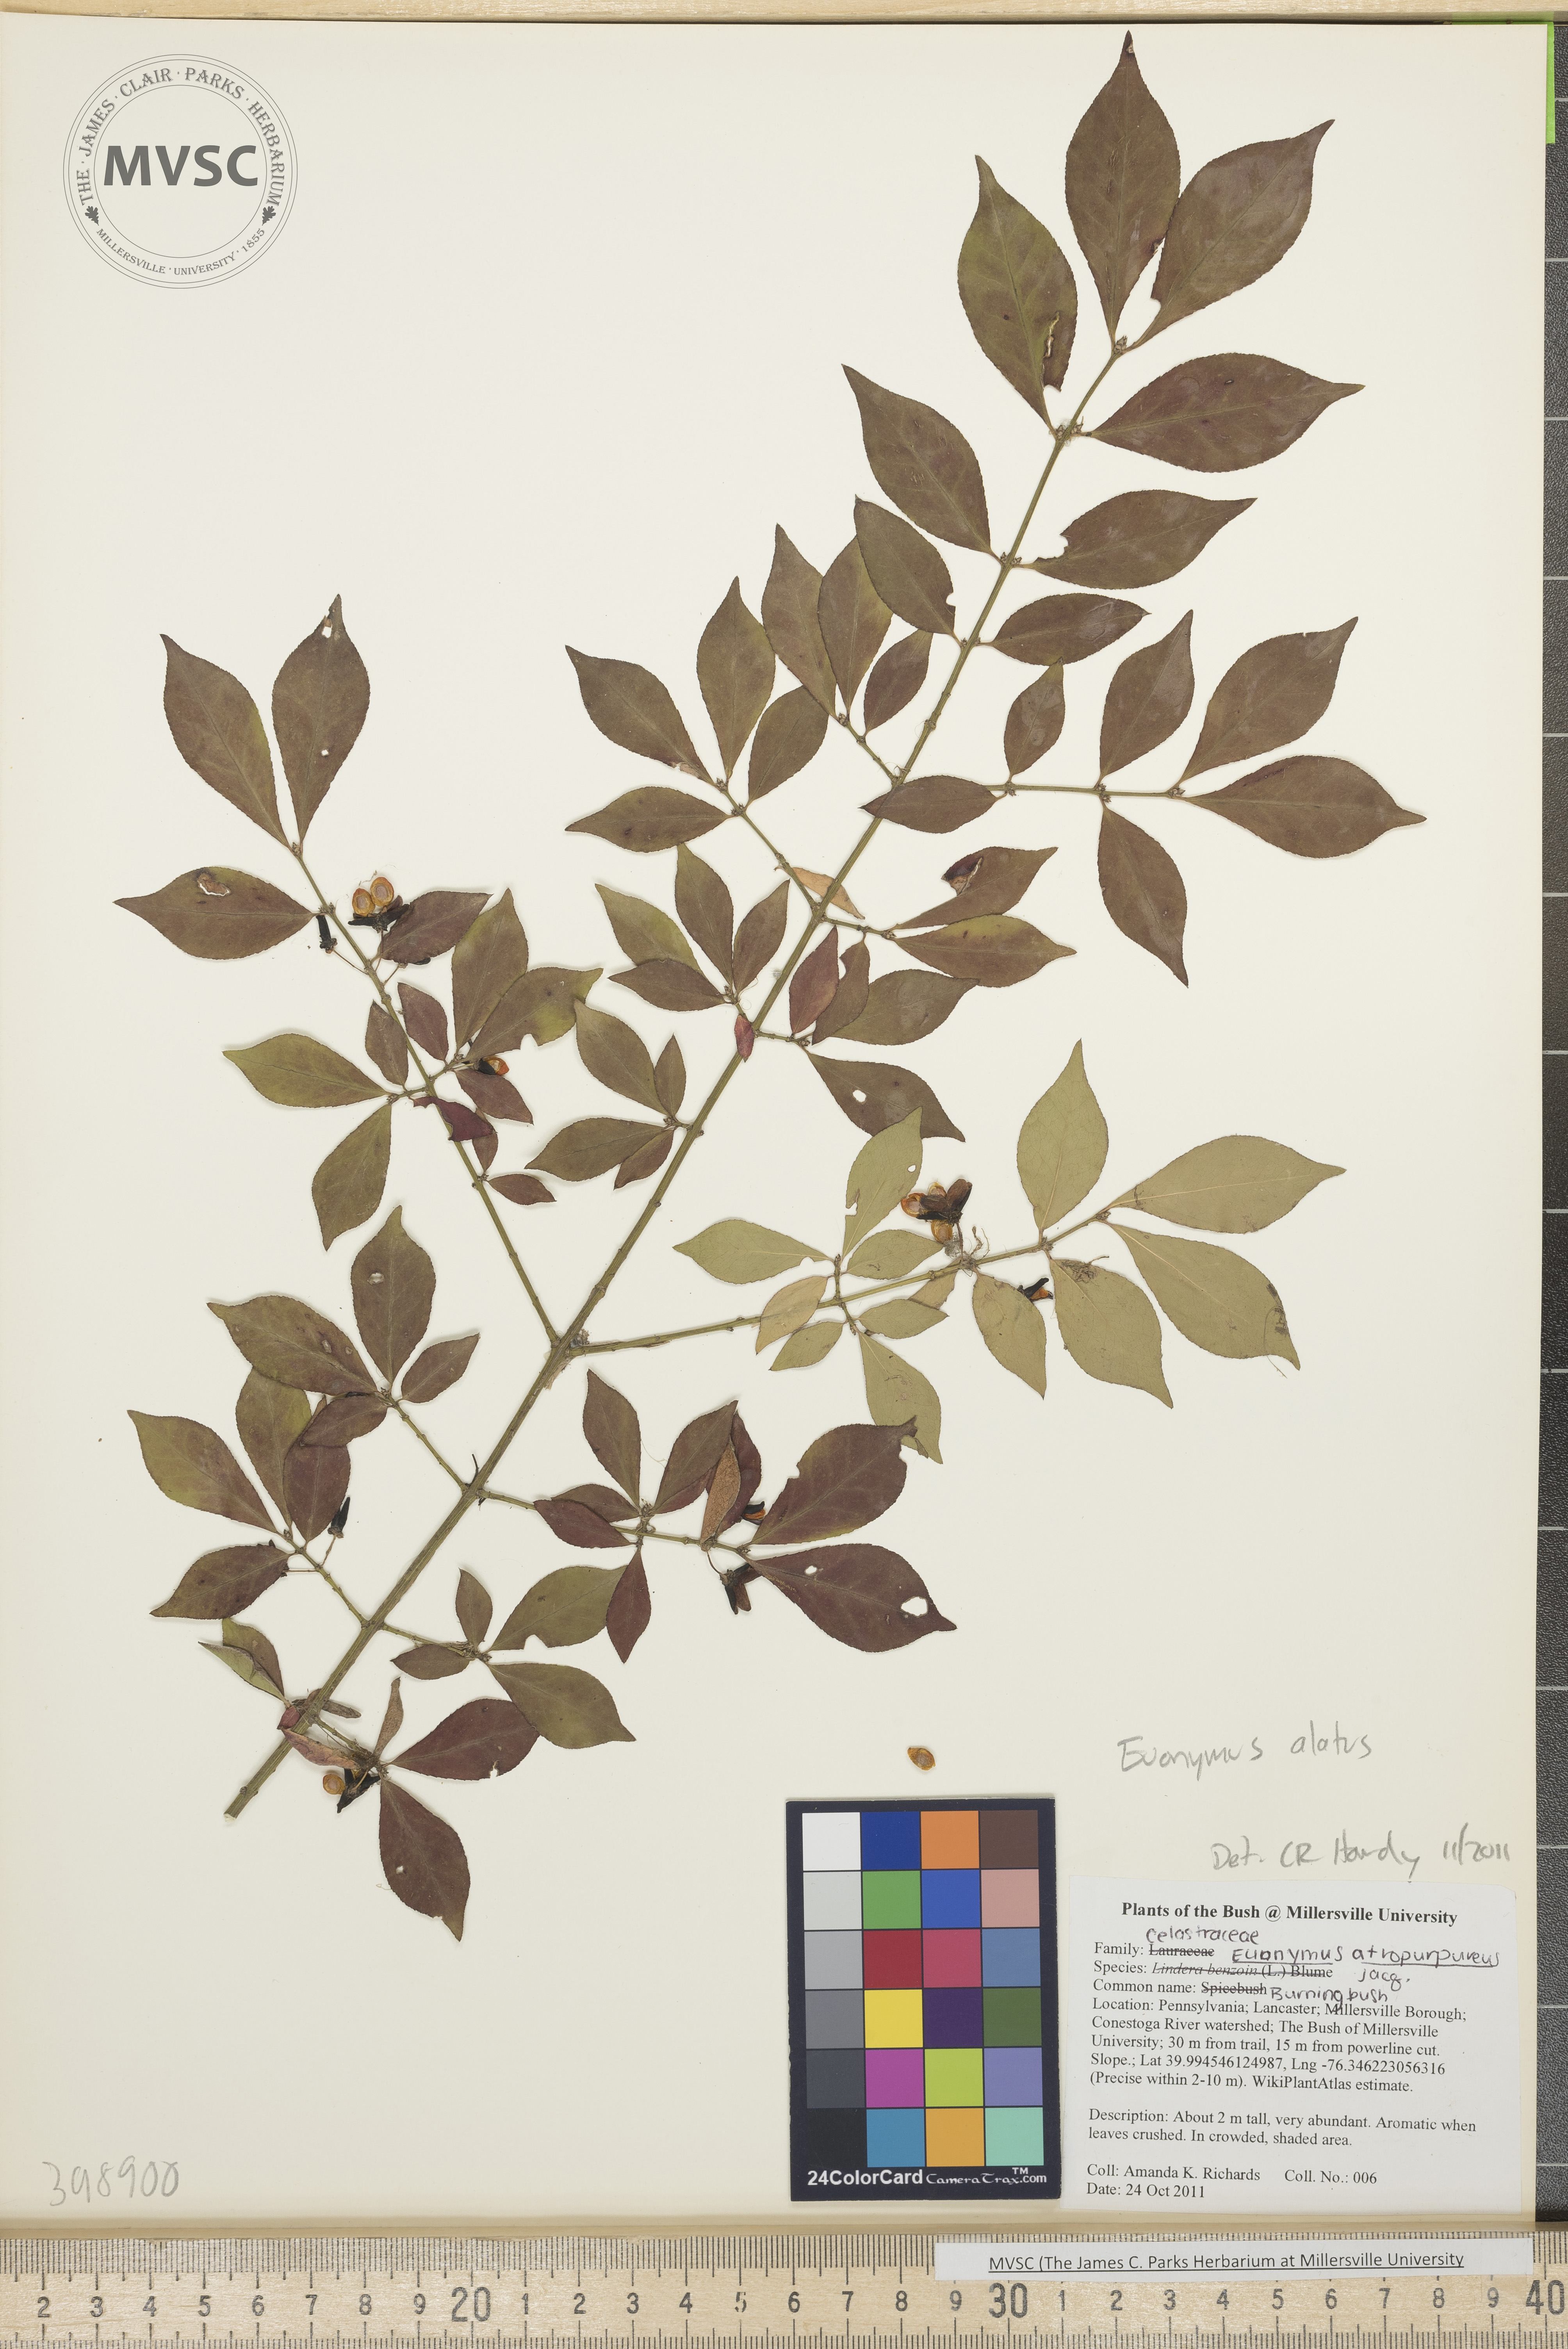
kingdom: Plantae
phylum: Tracheophyta
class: Magnoliopsida
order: Celastrales
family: Celastraceae
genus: Euonymus
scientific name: Euonymus alatus
